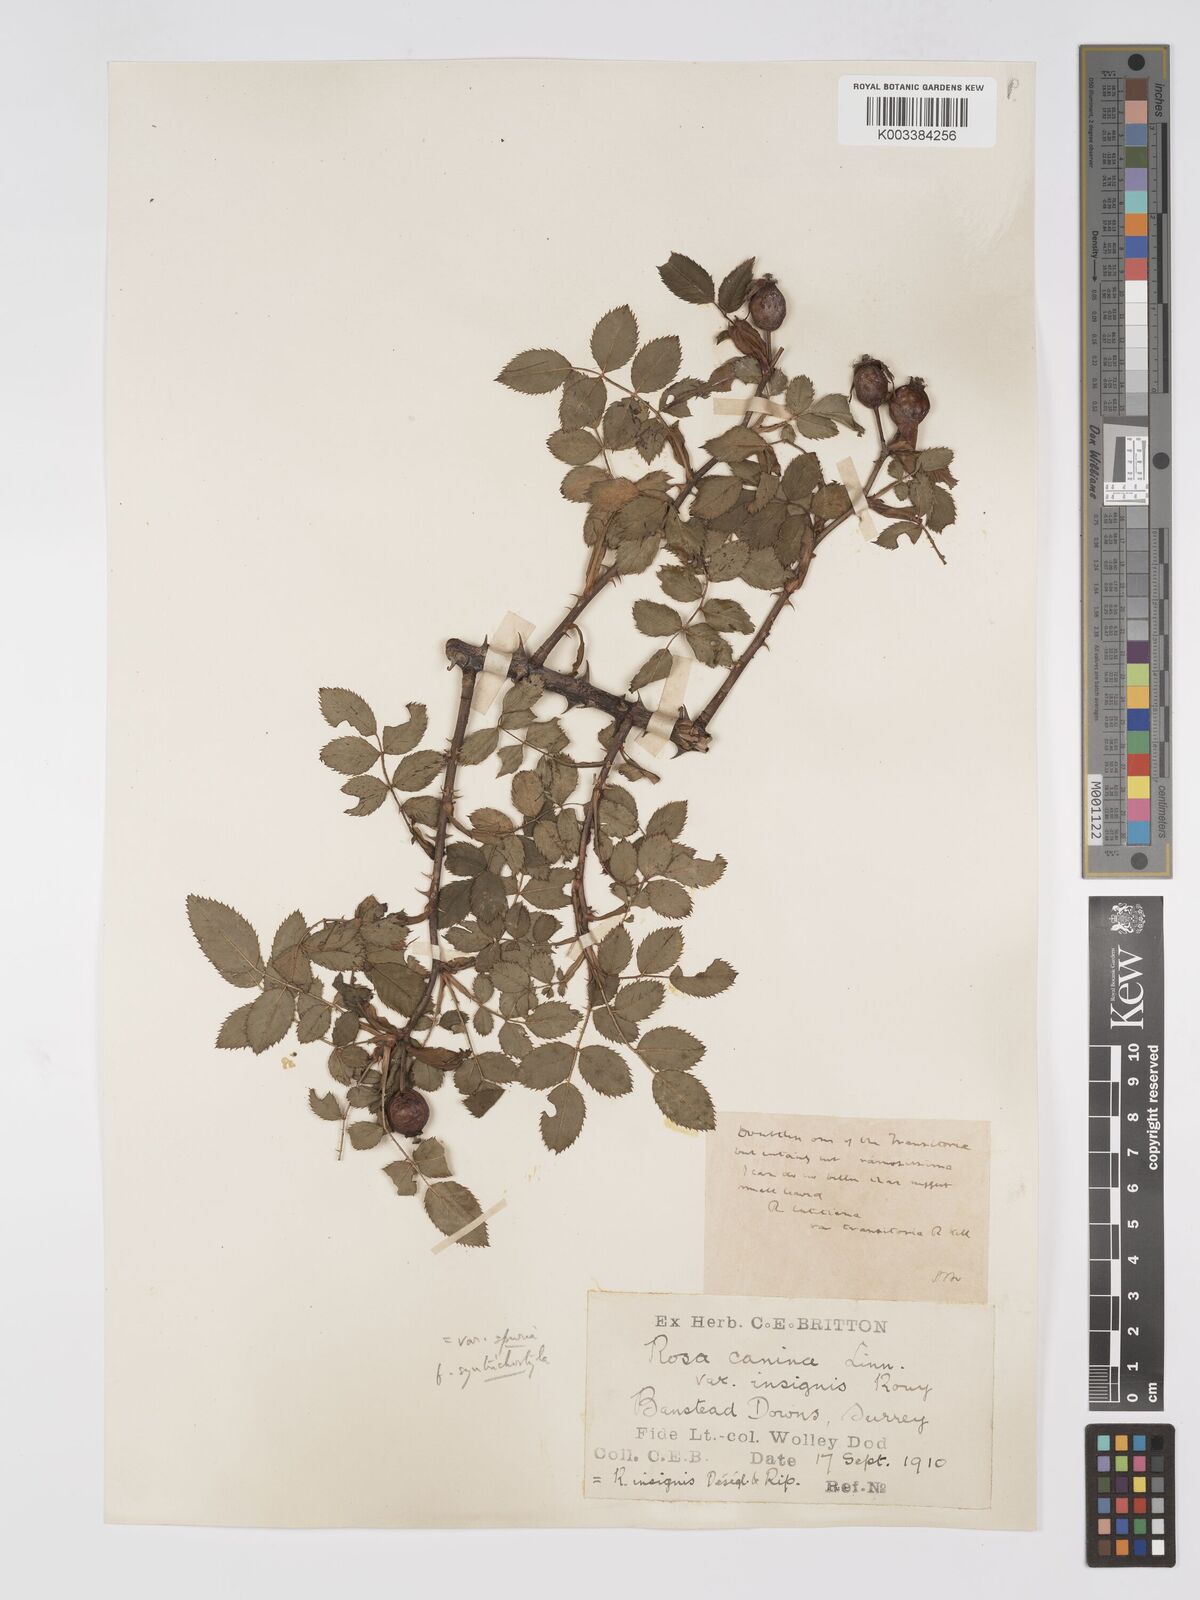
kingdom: Plantae
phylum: Tracheophyta
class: Magnoliopsida
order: Rosales
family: Rosaceae
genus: Rosa
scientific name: Rosa canina
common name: Dog rose
